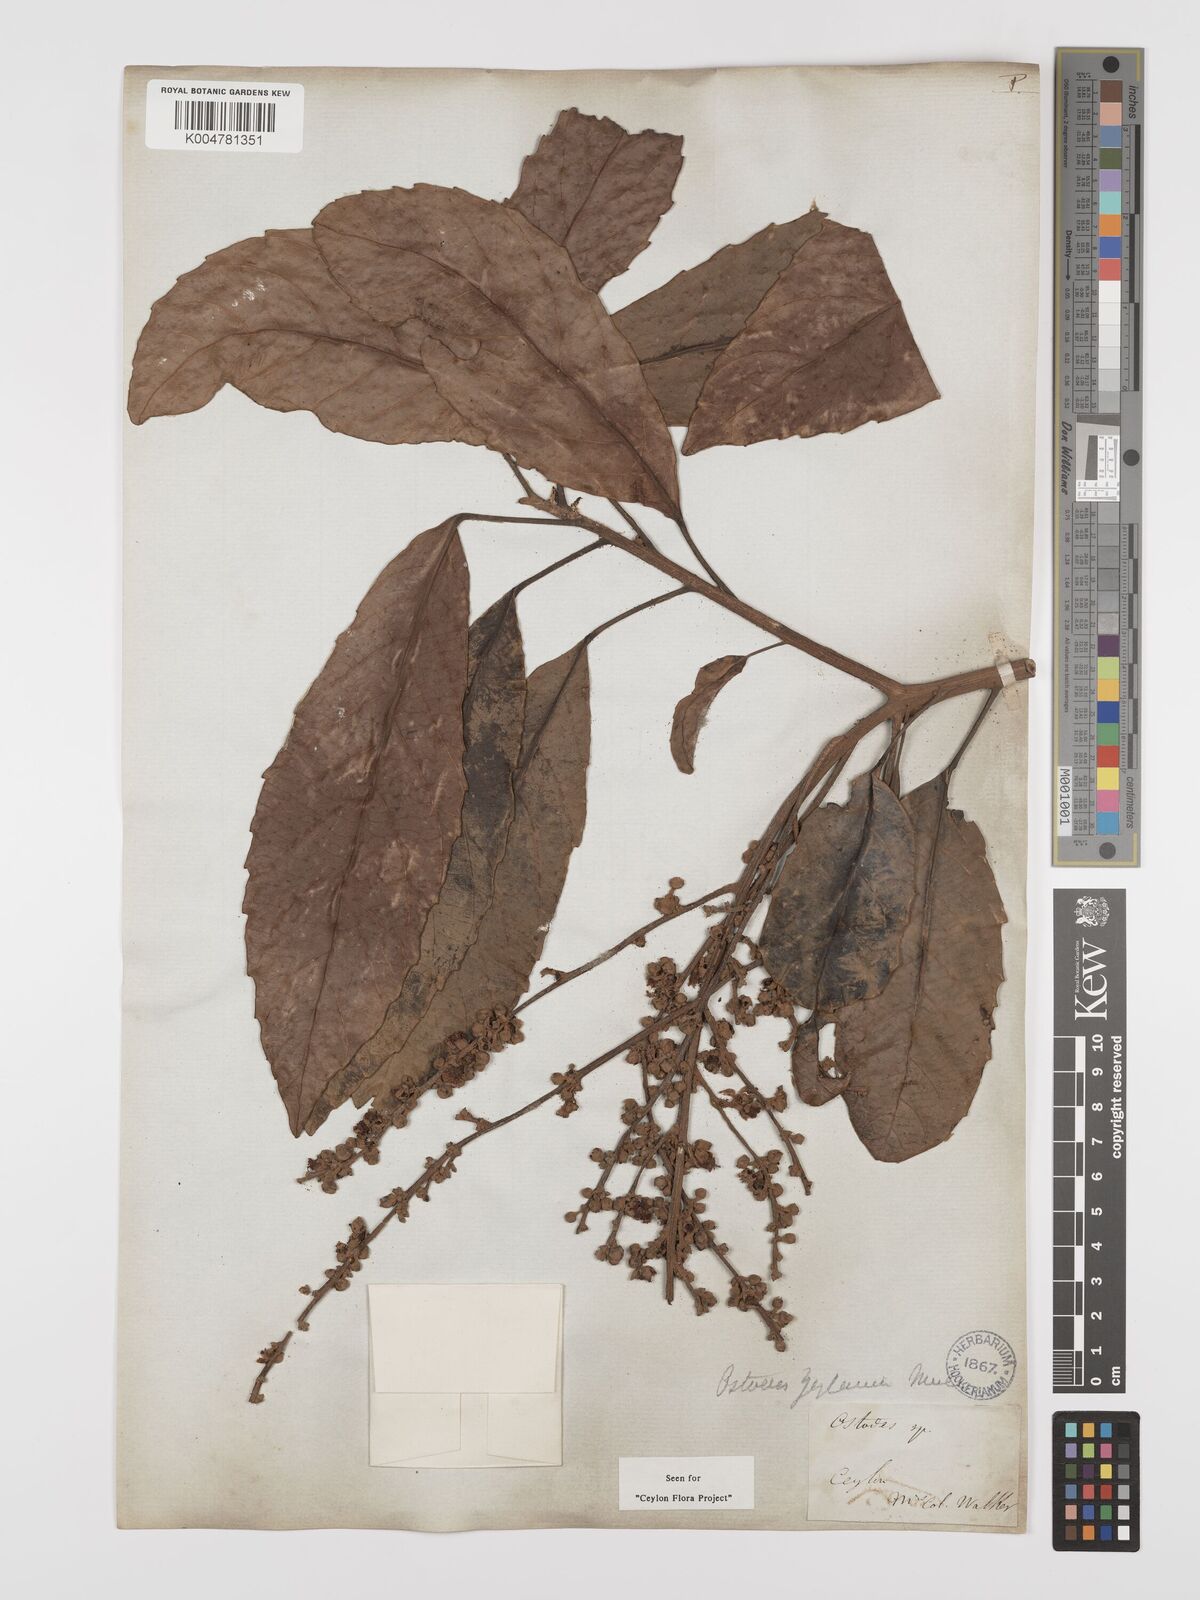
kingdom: Plantae
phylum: Tracheophyta
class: Magnoliopsida
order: Malpighiales
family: Euphorbiaceae
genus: Paracroton
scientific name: Paracroton zeylanicus
